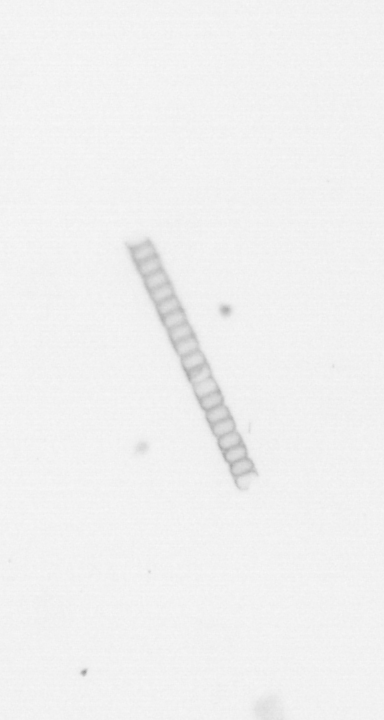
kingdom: Chromista
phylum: Ochrophyta
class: Bacillariophyceae
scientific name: Bacillariophyceae
